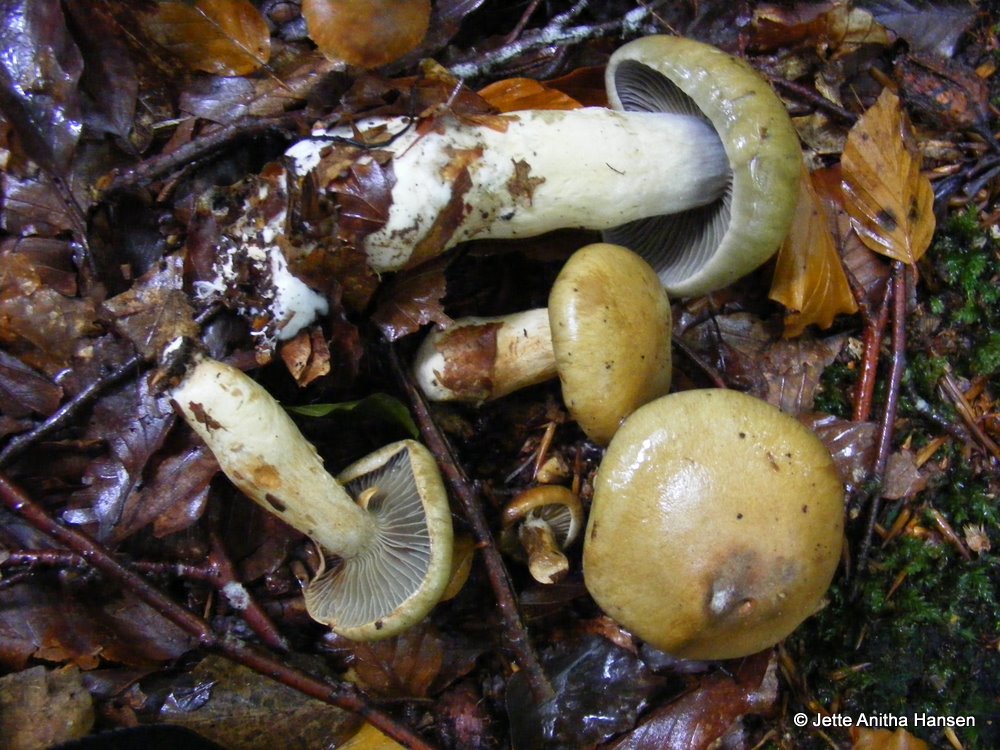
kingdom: Fungi
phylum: Basidiomycota
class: Agaricomycetes
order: Agaricales
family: Cortinariaceae
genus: Cortinarius
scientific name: Cortinarius
